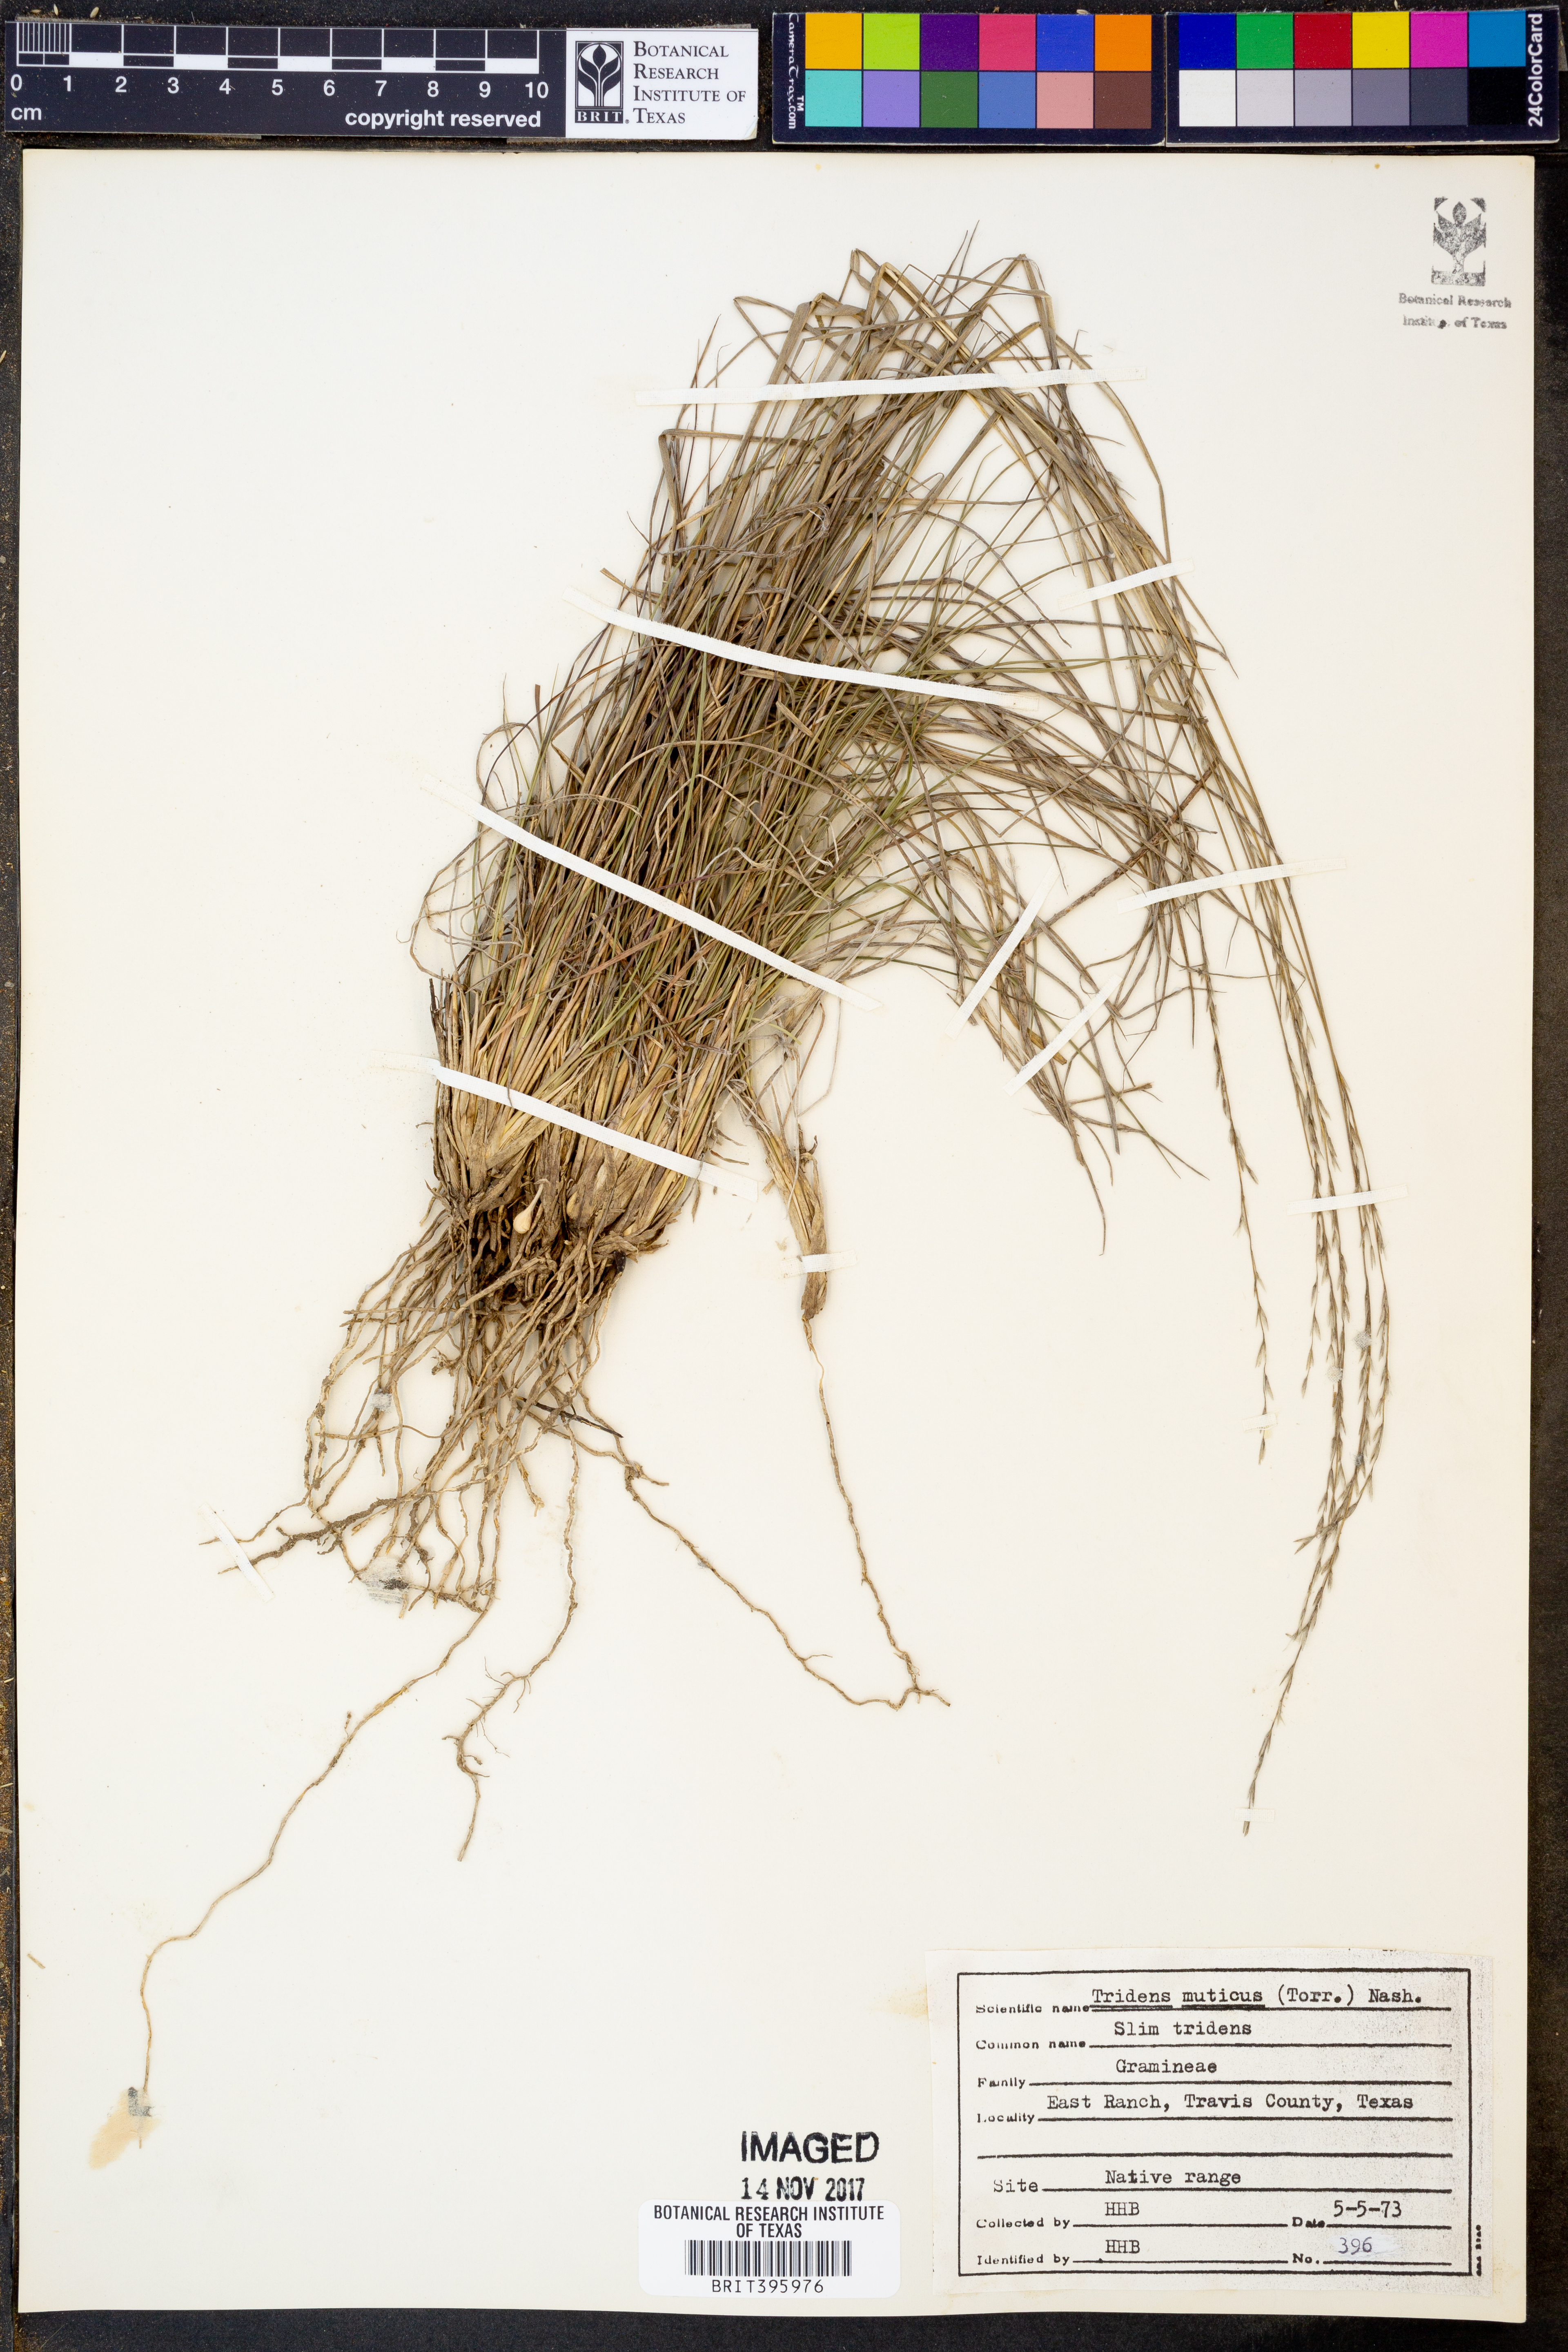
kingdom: Plantae
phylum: Tracheophyta
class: Liliopsida
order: Poales
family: Poaceae
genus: Tridentopsis
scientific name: Tridentopsis mutica
